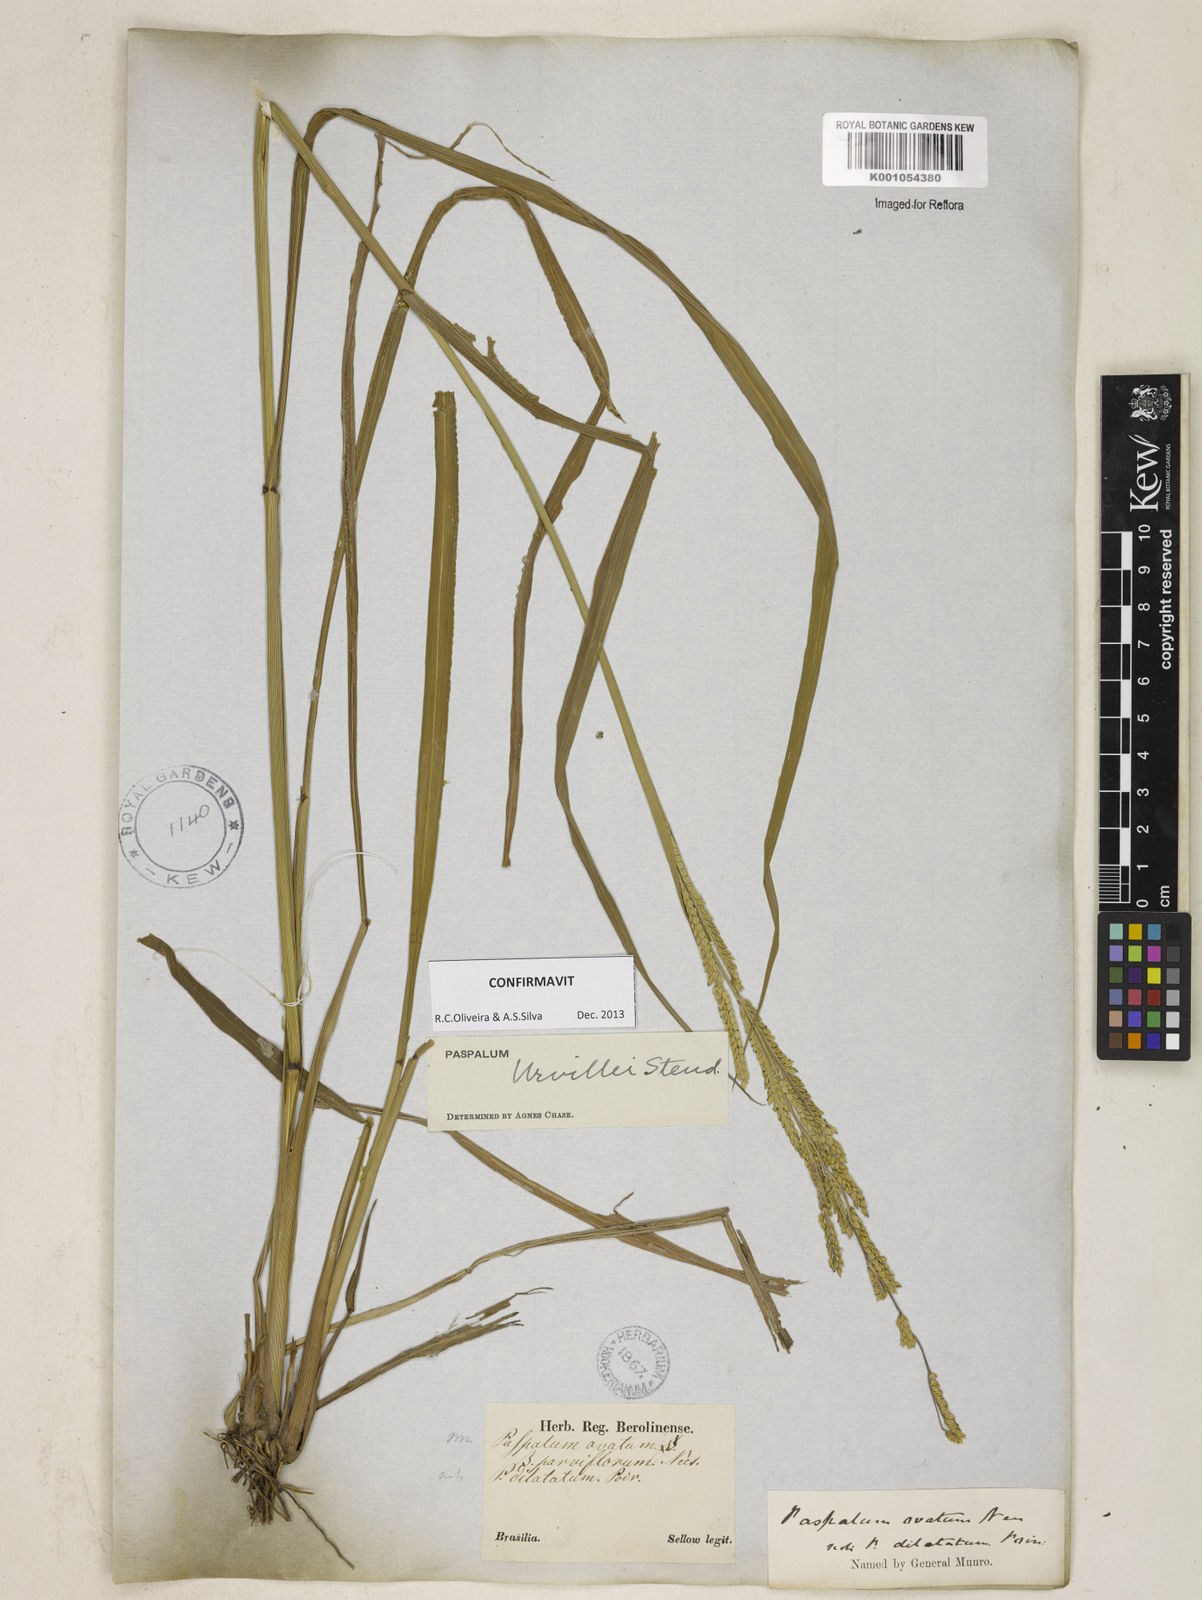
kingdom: Plantae
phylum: Tracheophyta
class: Liliopsida
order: Poales
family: Poaceae
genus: Paspalum
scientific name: Paspalum urvillei
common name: Vasey's grass
